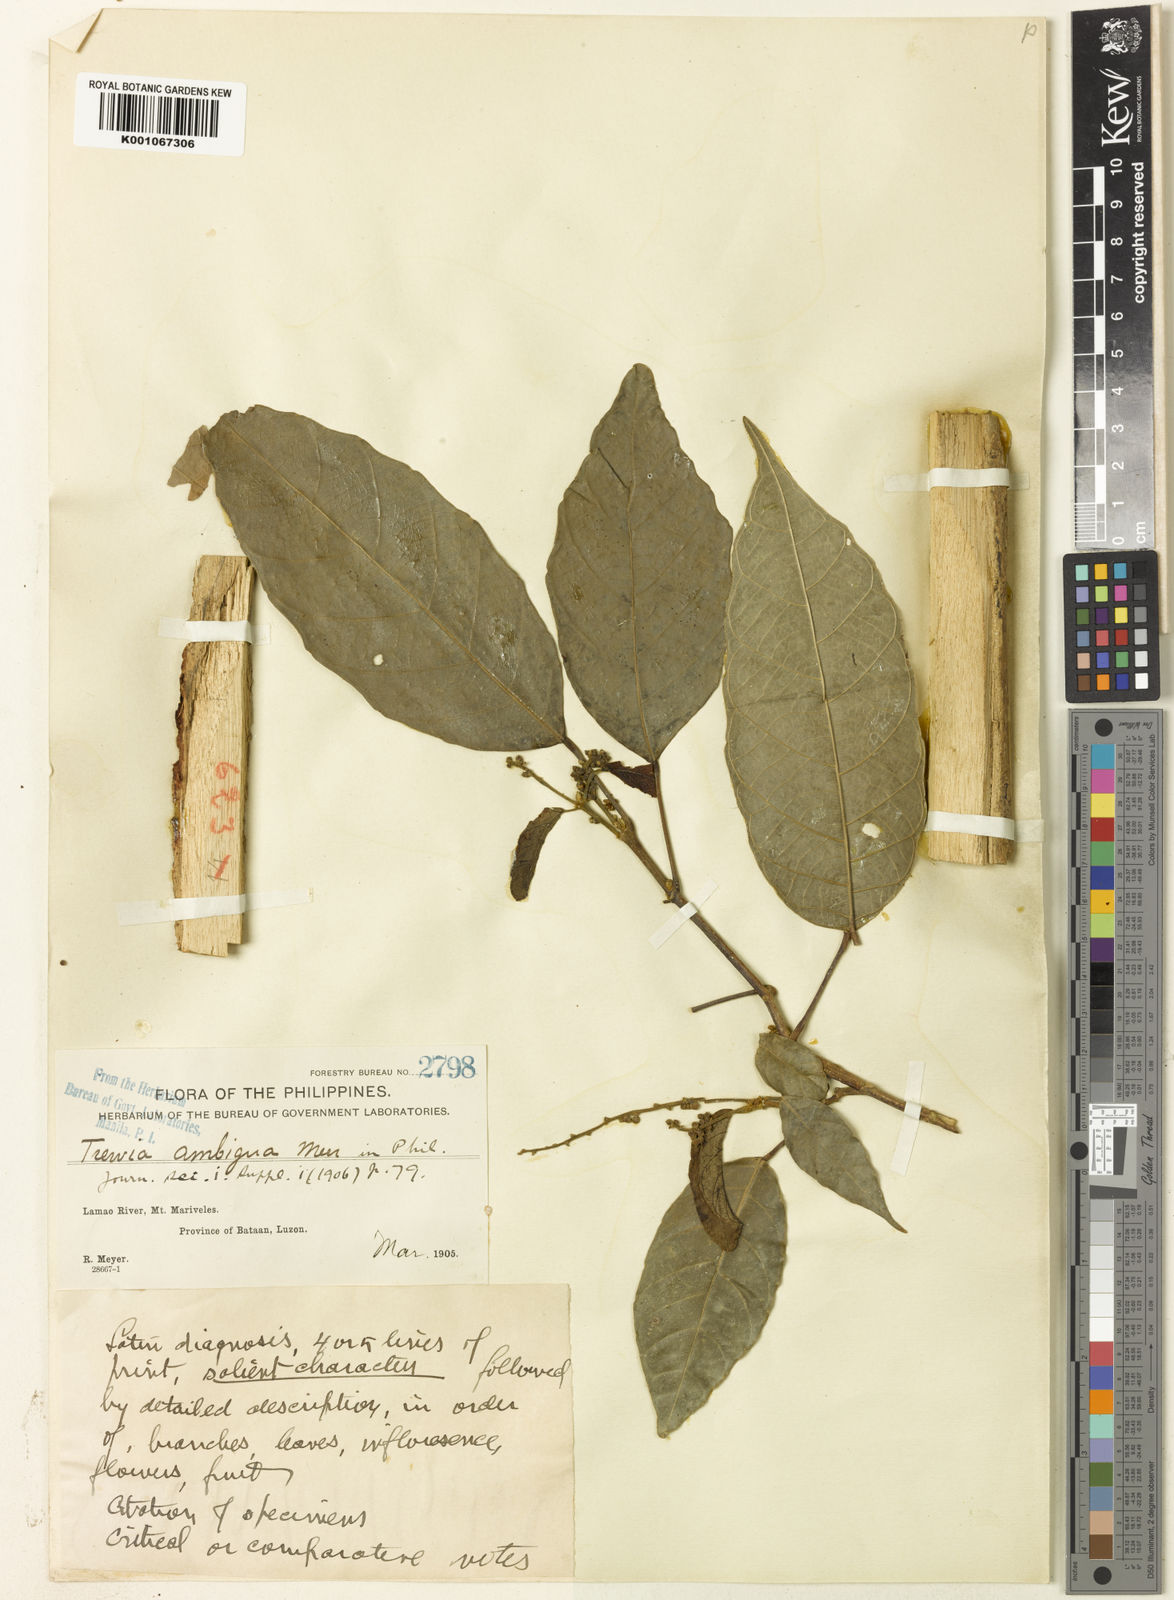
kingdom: Plantae
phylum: Tracheophyta
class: Magnoliopsida
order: Malpighiales
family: Euphorbiaceae
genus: Mallotus
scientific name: Mallotus
